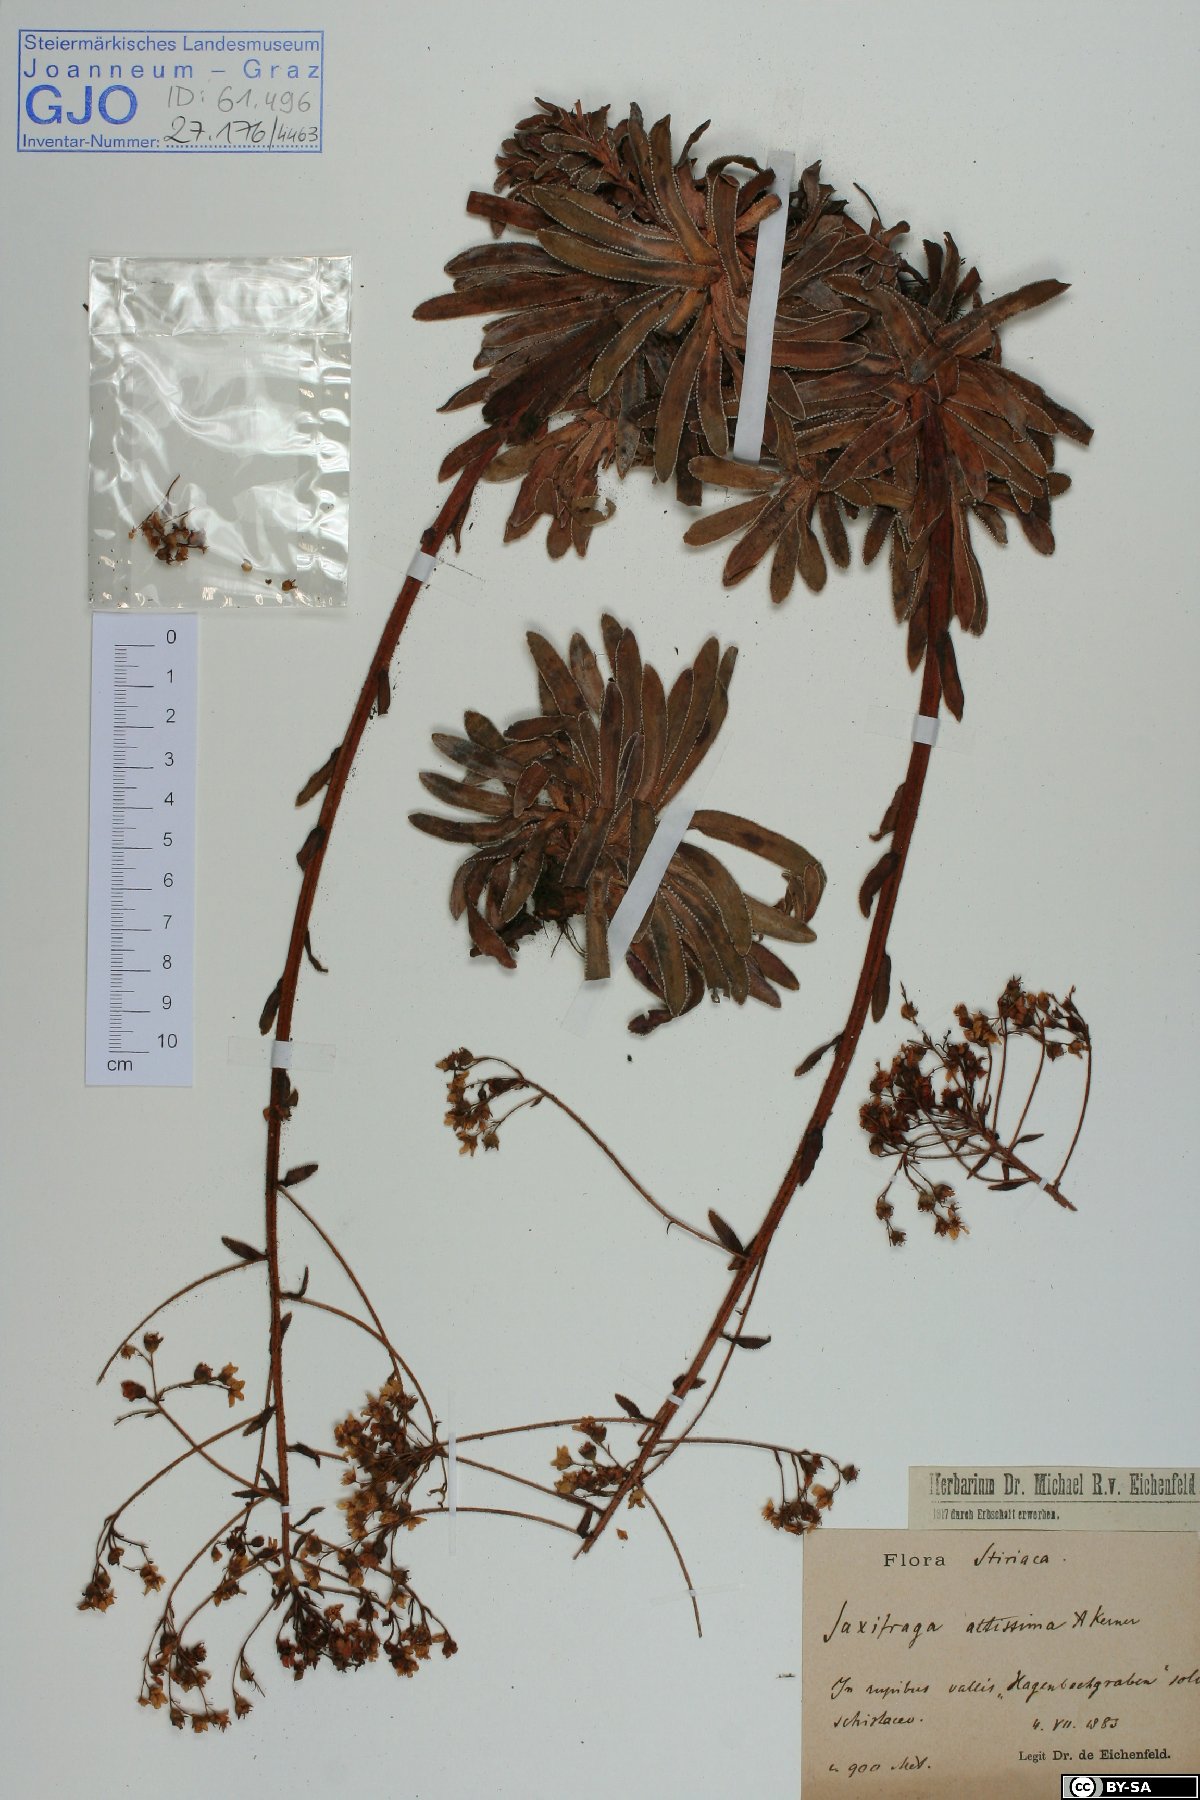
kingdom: Plantae
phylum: Tracheophyta
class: Magnoliopsida
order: Saxifragales
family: Saxifragaceae
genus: Saxifraga
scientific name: Saxifraga hostii
